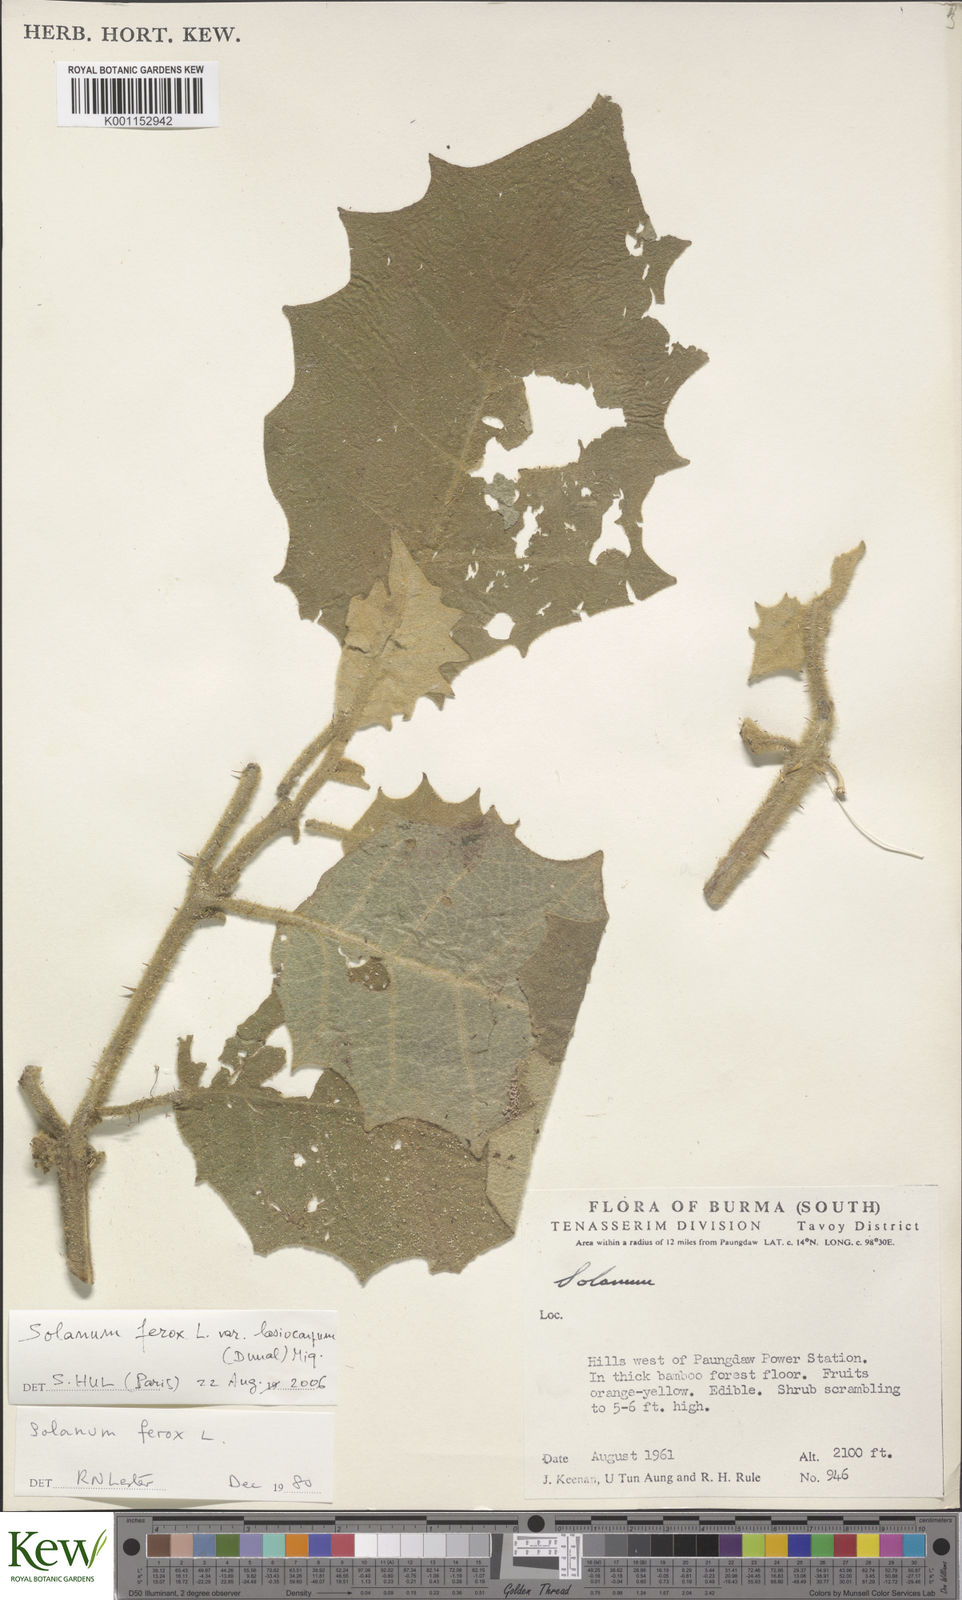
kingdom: Plantae
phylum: Tracheophyta
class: Magnoliopsida
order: Solanales
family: Solanaceae
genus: Solanum
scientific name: Solanum
